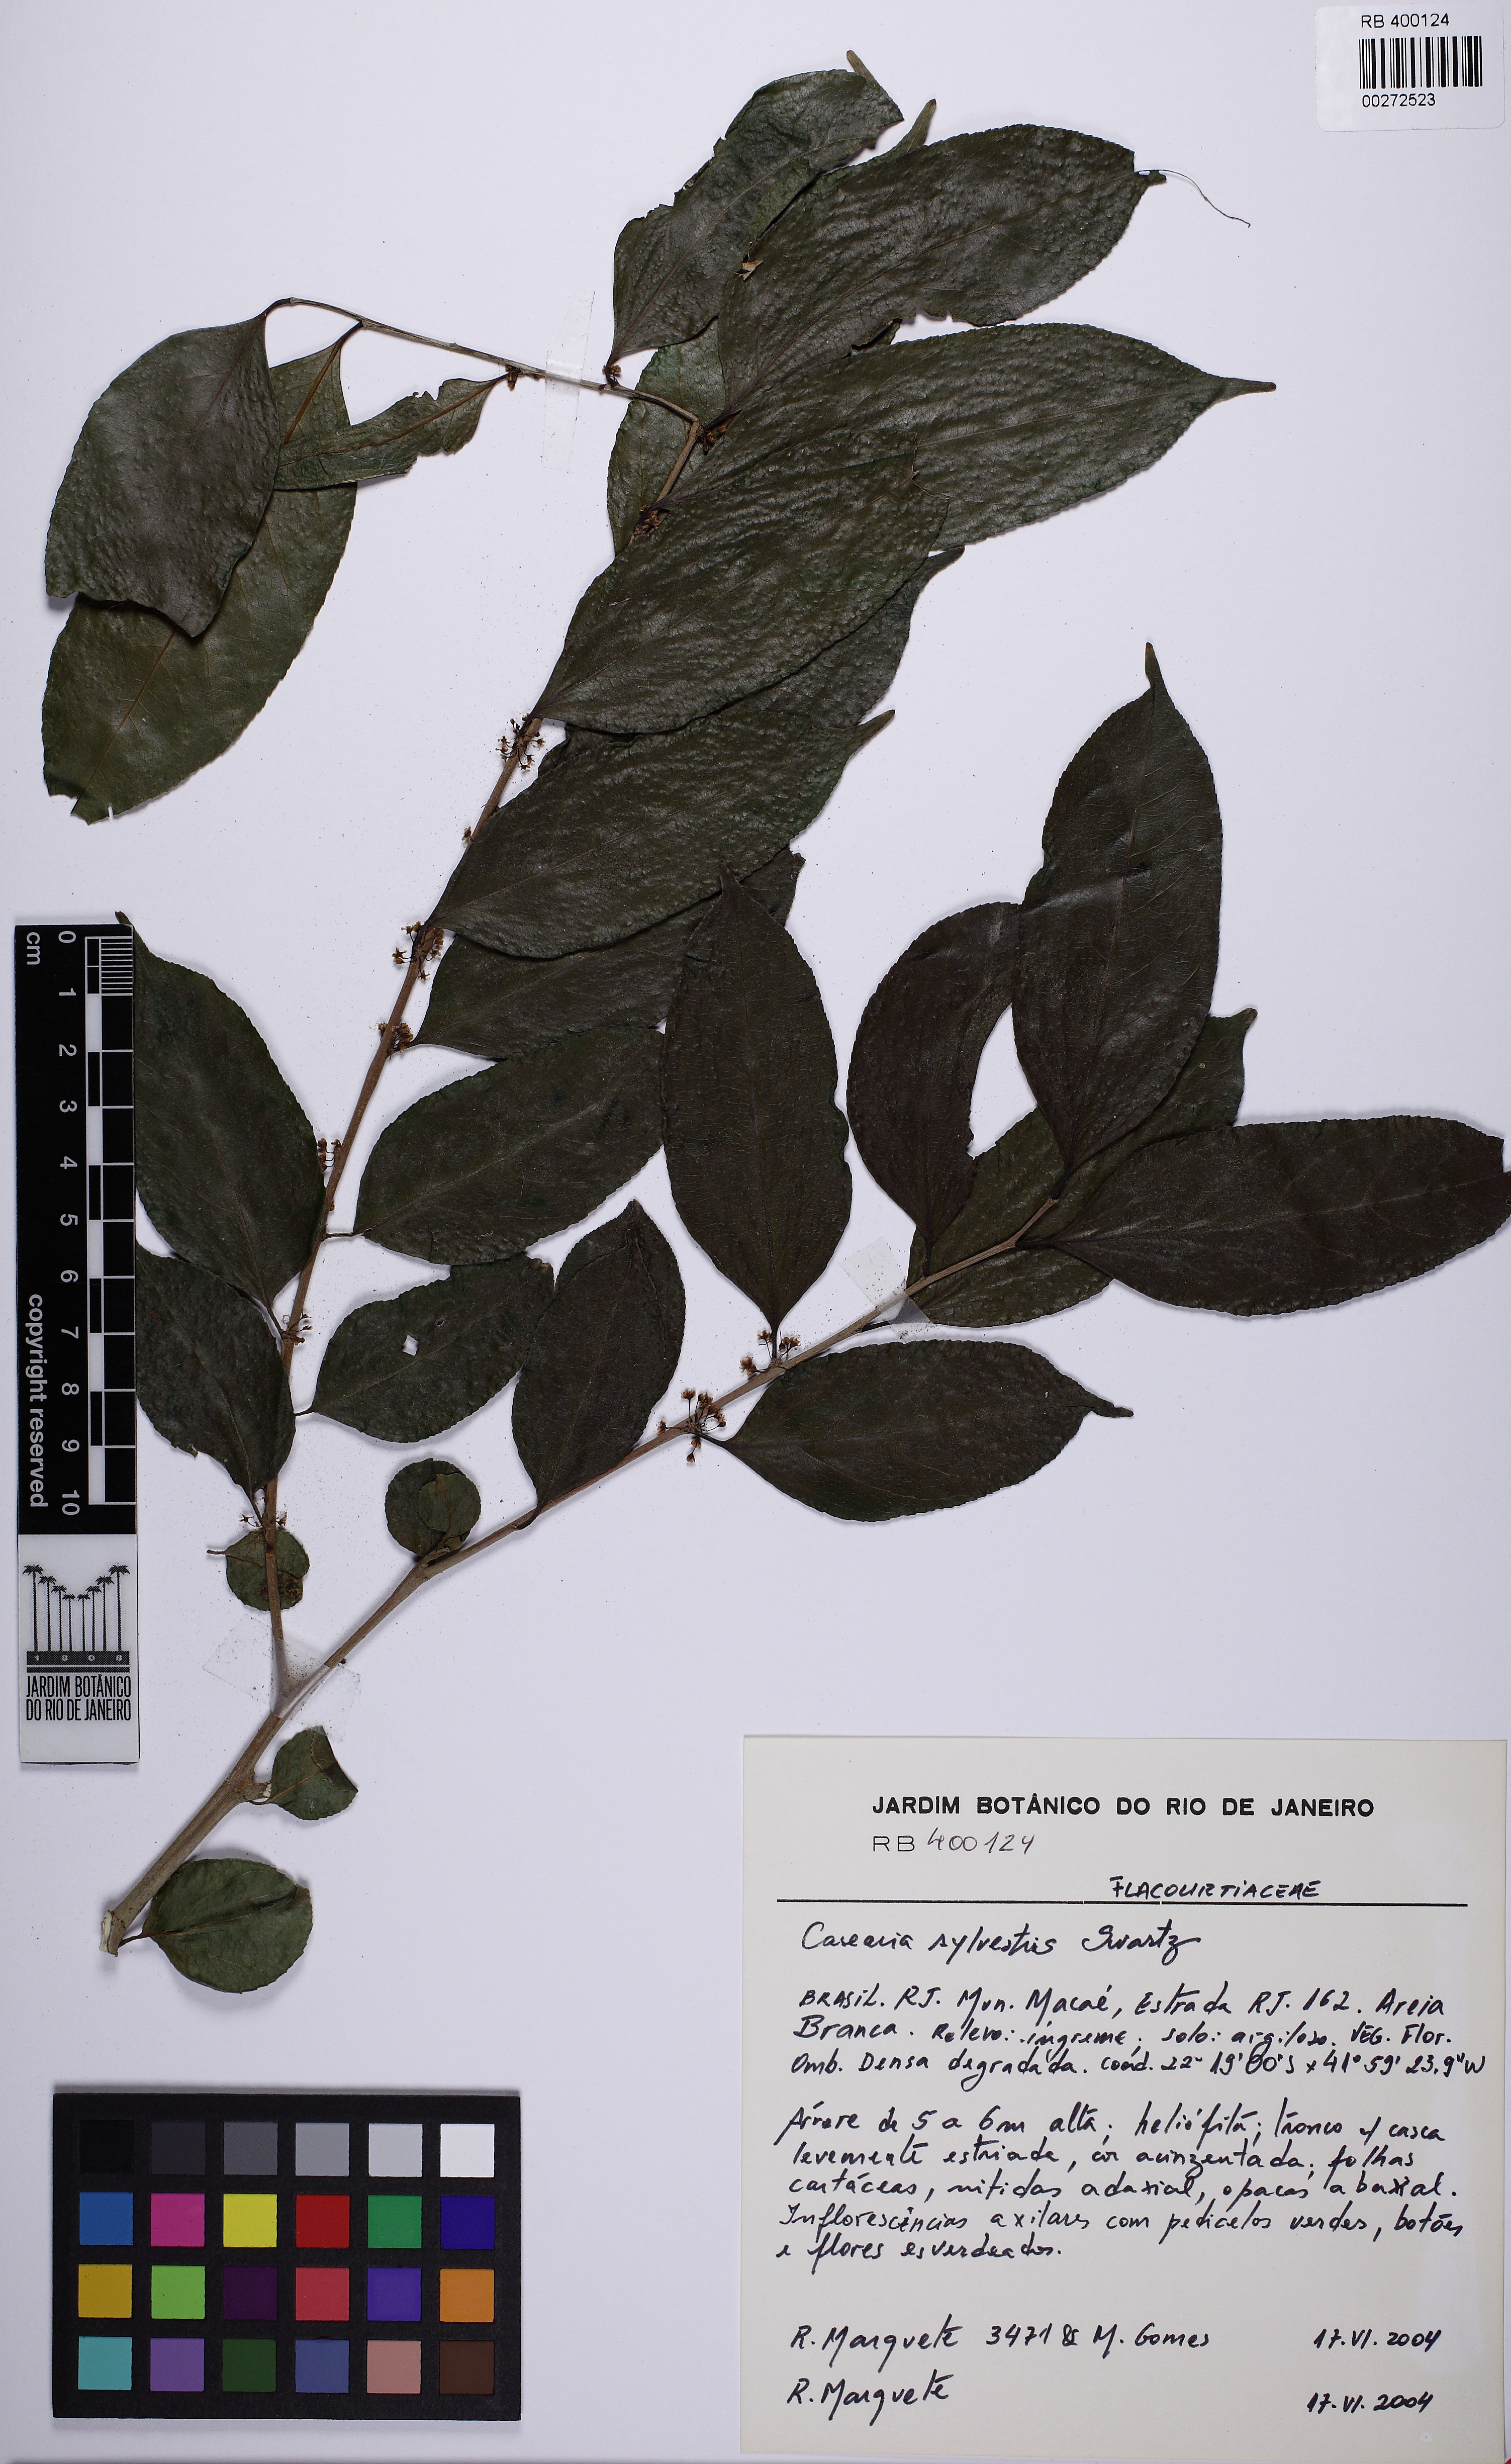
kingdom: Plantae
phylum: Tracheophyta
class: Magnoliopsida
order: Malpighiales
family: Salicaceae
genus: Casearia
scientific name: Casearia sylvestris
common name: Wild sage
